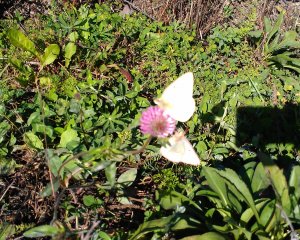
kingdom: Animalia
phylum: Arthropoda
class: Insecta
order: Lepidoptera
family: Pieridae
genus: Colias
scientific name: Colias philodice
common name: Clouded Sulphur
